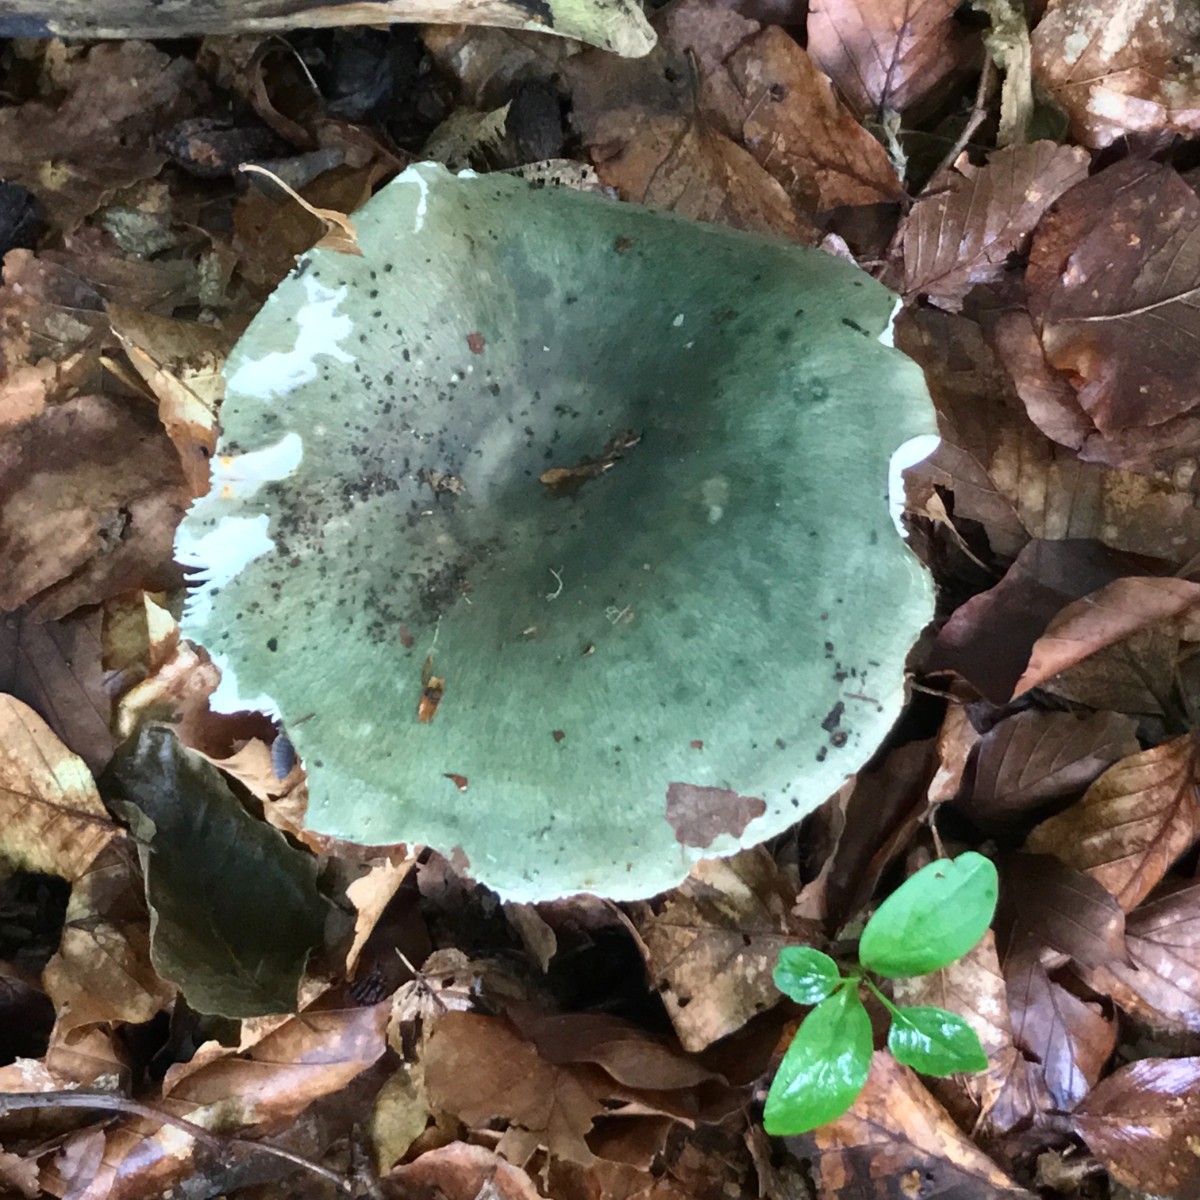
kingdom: Fungi
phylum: Basidiomycota
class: Agaricomycetes
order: Russulales
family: Russulaceae
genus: Russula
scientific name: Russula cyanoxantha
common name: broget skørhat
